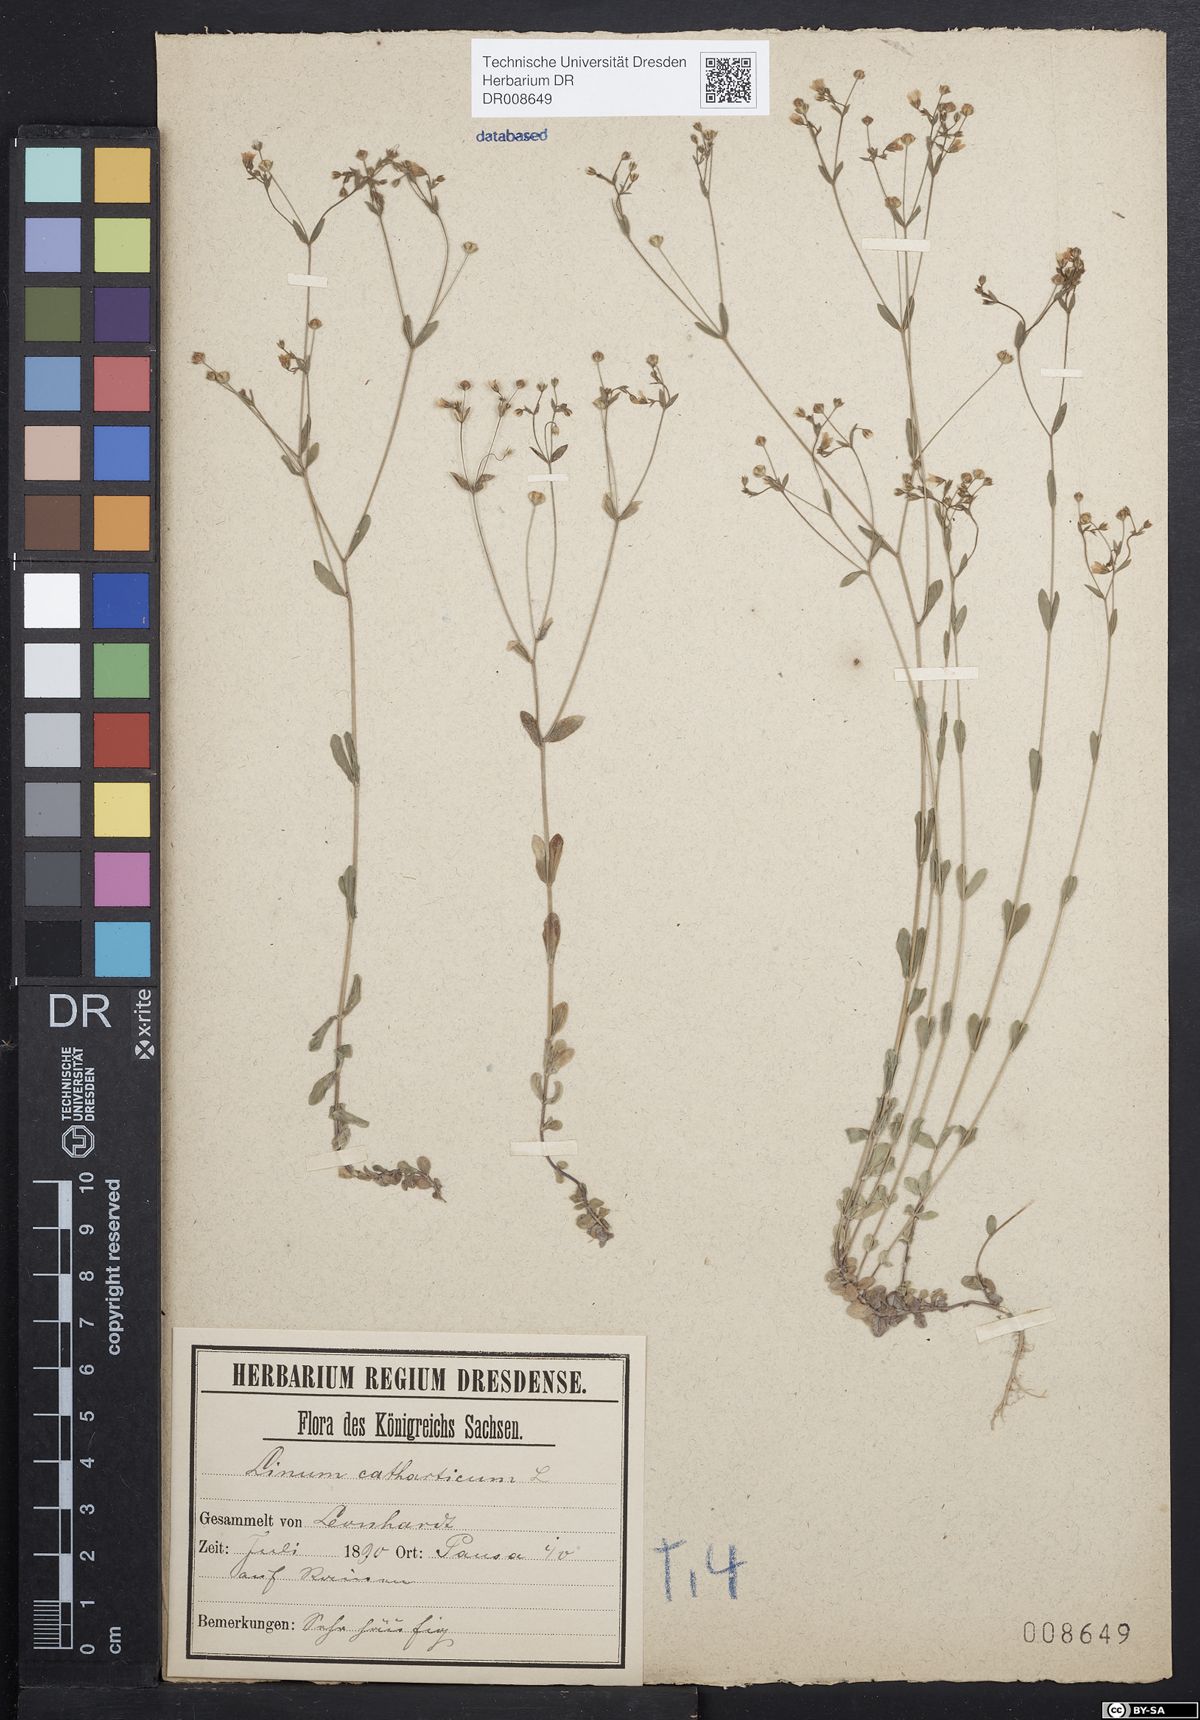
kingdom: Plantae
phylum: Tracheophyta
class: Magnoliopsida
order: Malpighiales
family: Linaceae
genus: Linum
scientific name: Linum catharticum
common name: Fairy flax
